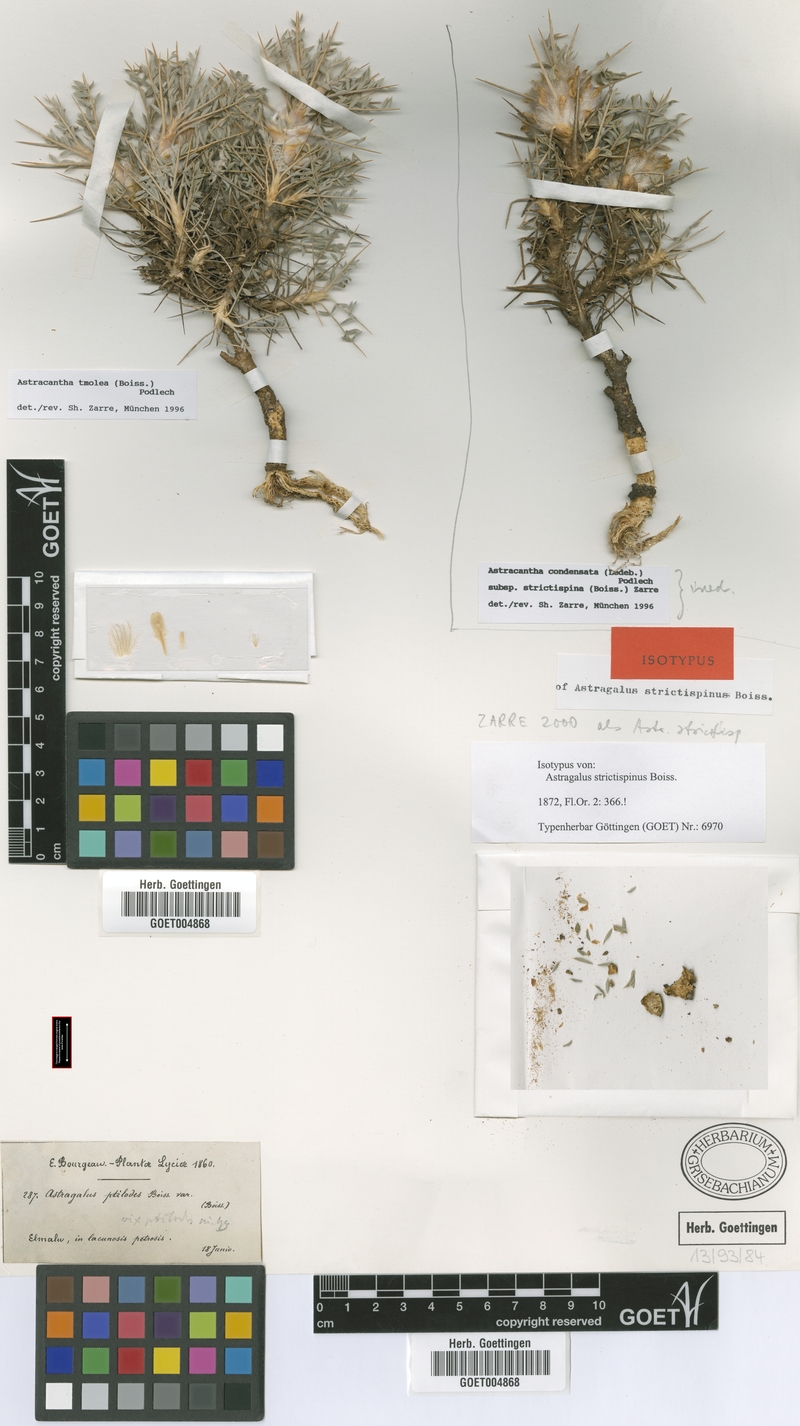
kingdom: Plantae
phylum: Tracheophyta
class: Magnoliopsida
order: Fabales
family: Fabaceae
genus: Astragalus
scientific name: Astragalus condensatus
